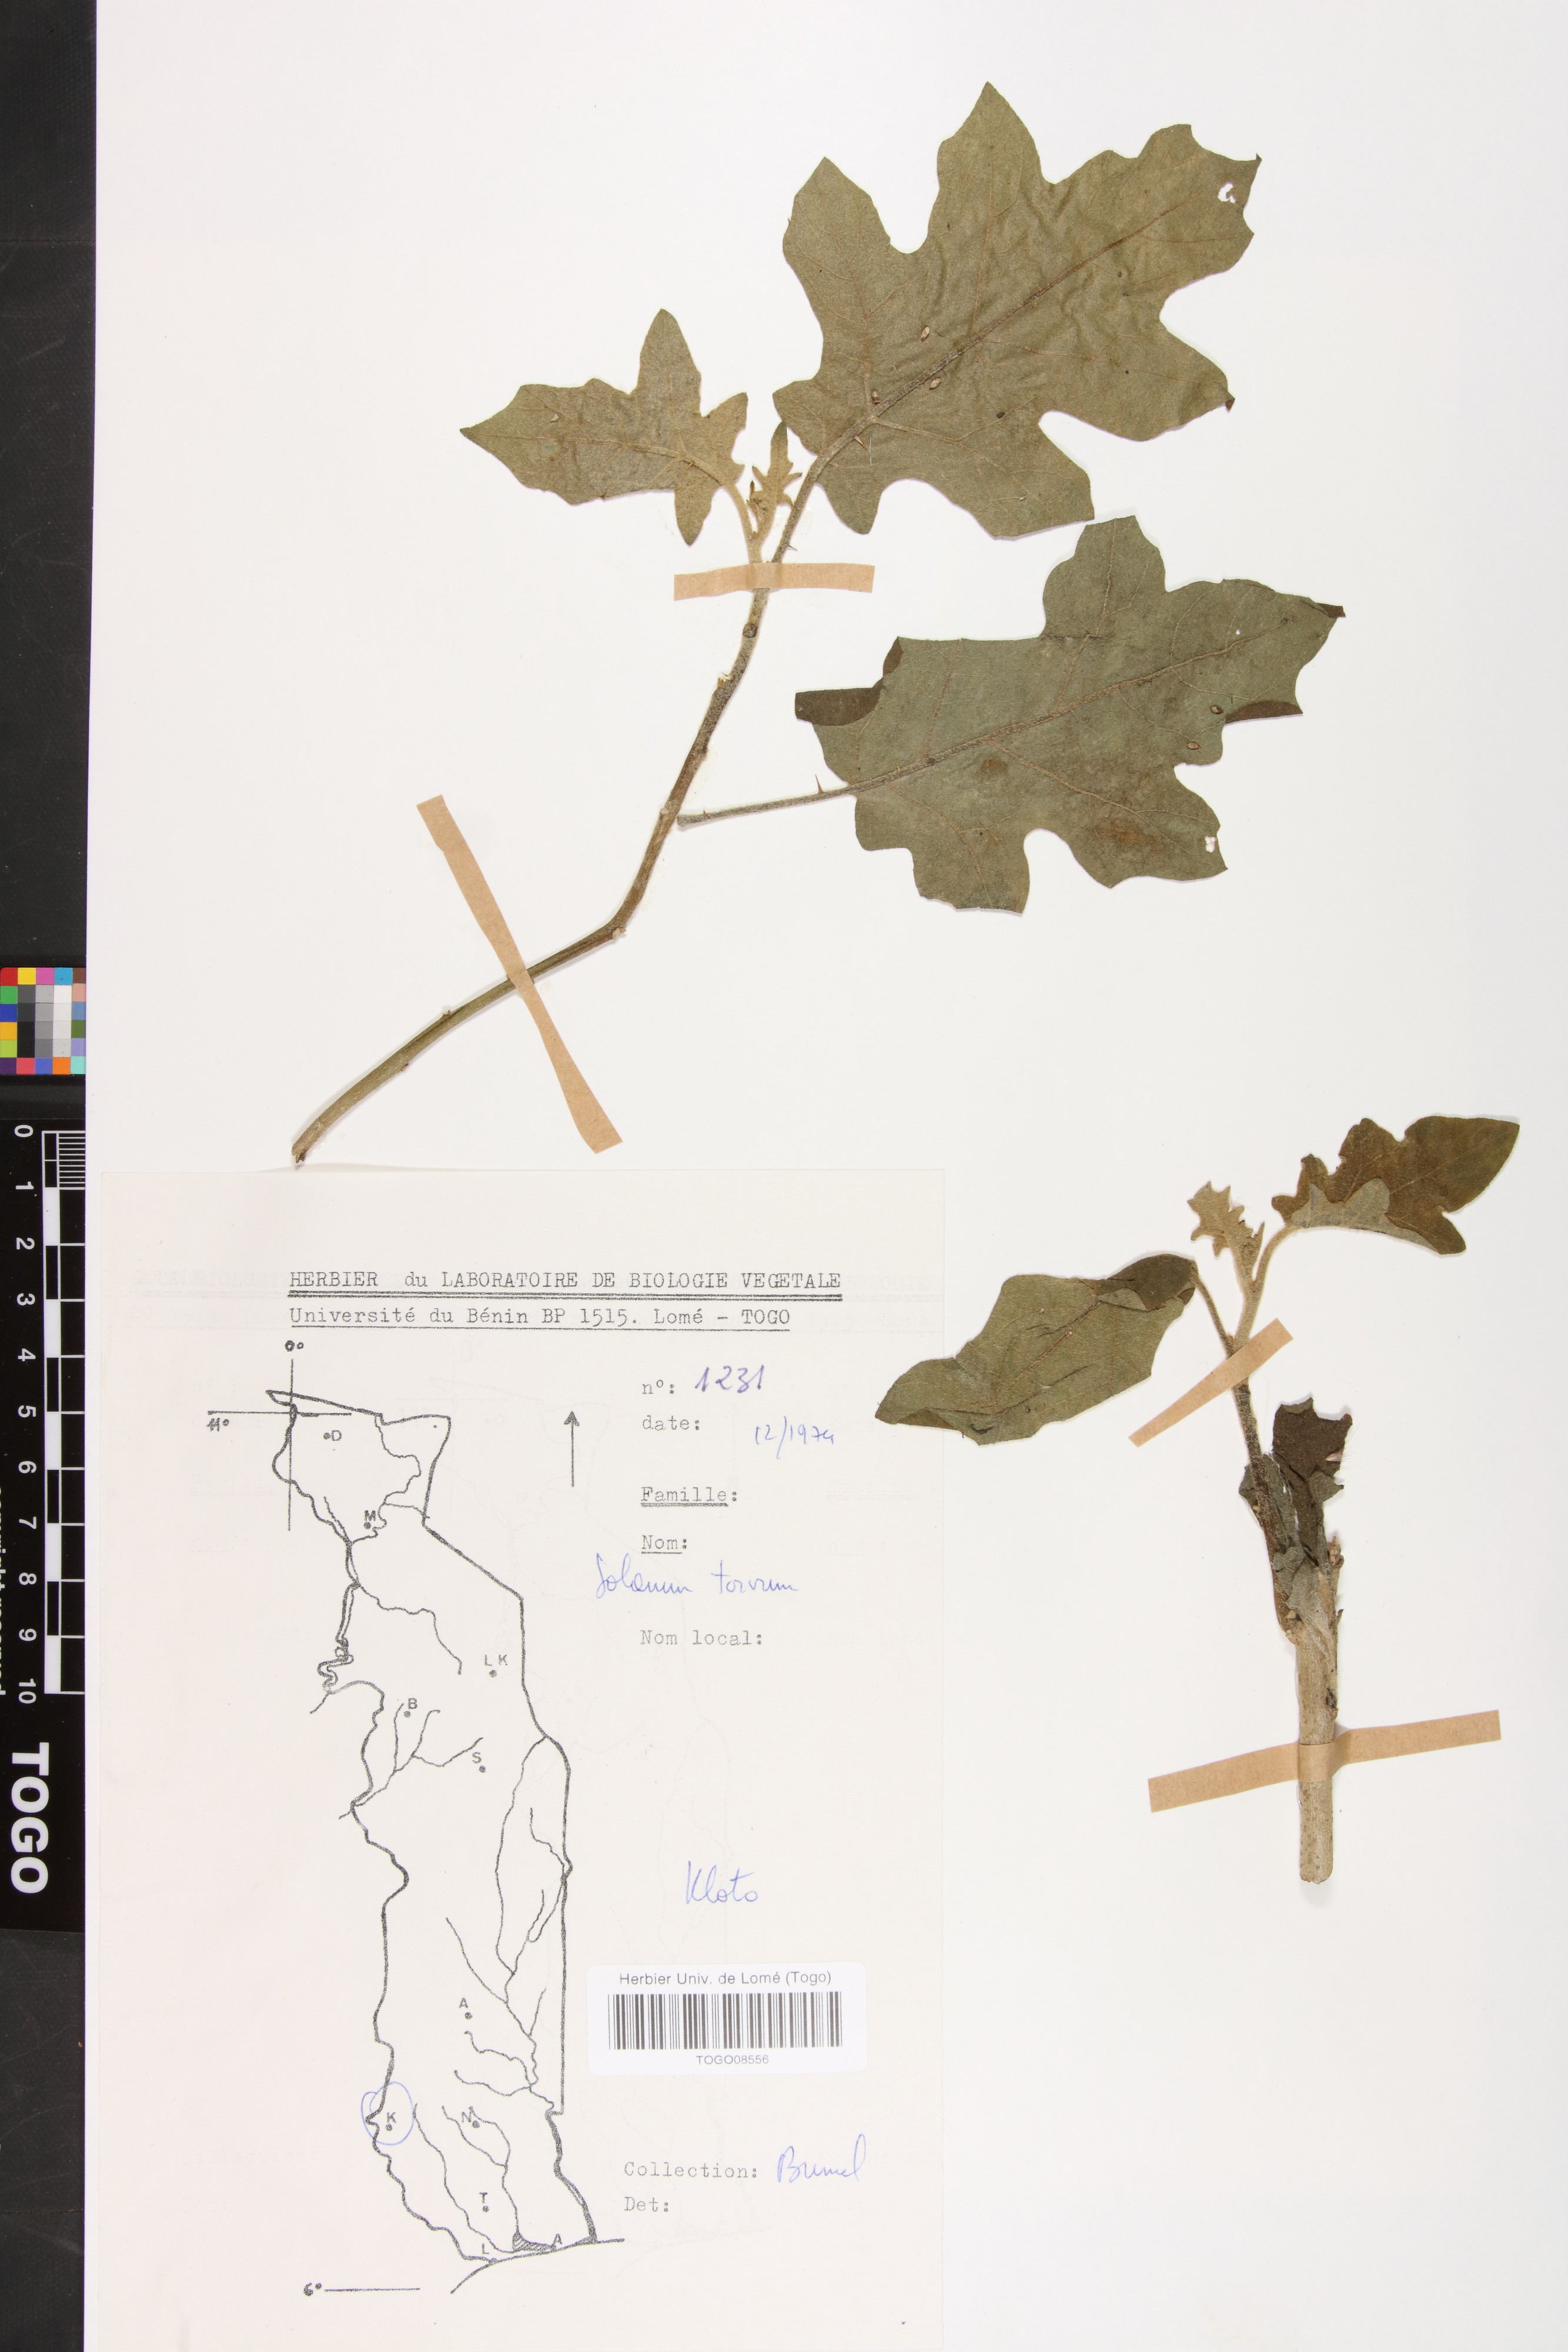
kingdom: Plantae
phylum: Tracheophyta
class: Magnoliopsida
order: Solanales
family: Solanaceae
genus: Solanum
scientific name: Solanum torvum
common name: Turkey berry
